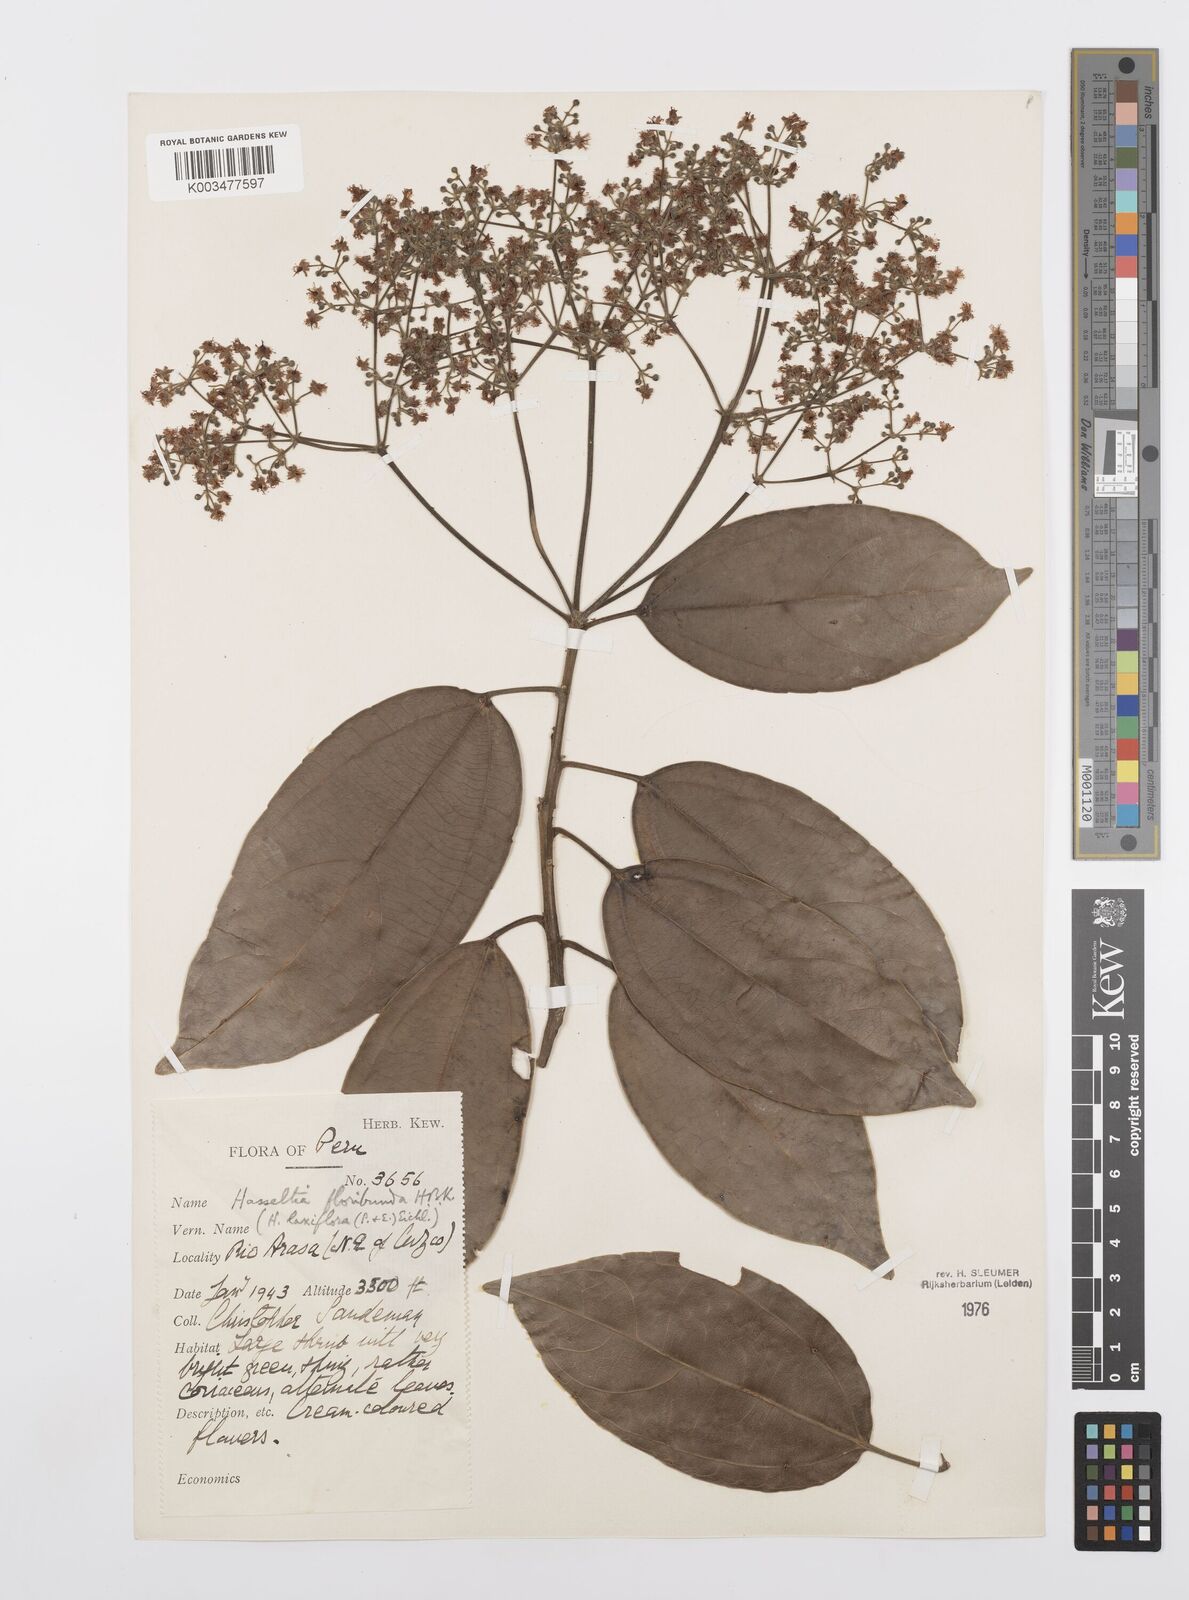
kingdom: Plantae
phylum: Tracheophyta
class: Magnoliopsida
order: Malpighiales
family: Salicaceae
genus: Hasseltia
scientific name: Hasseltia floribunda
